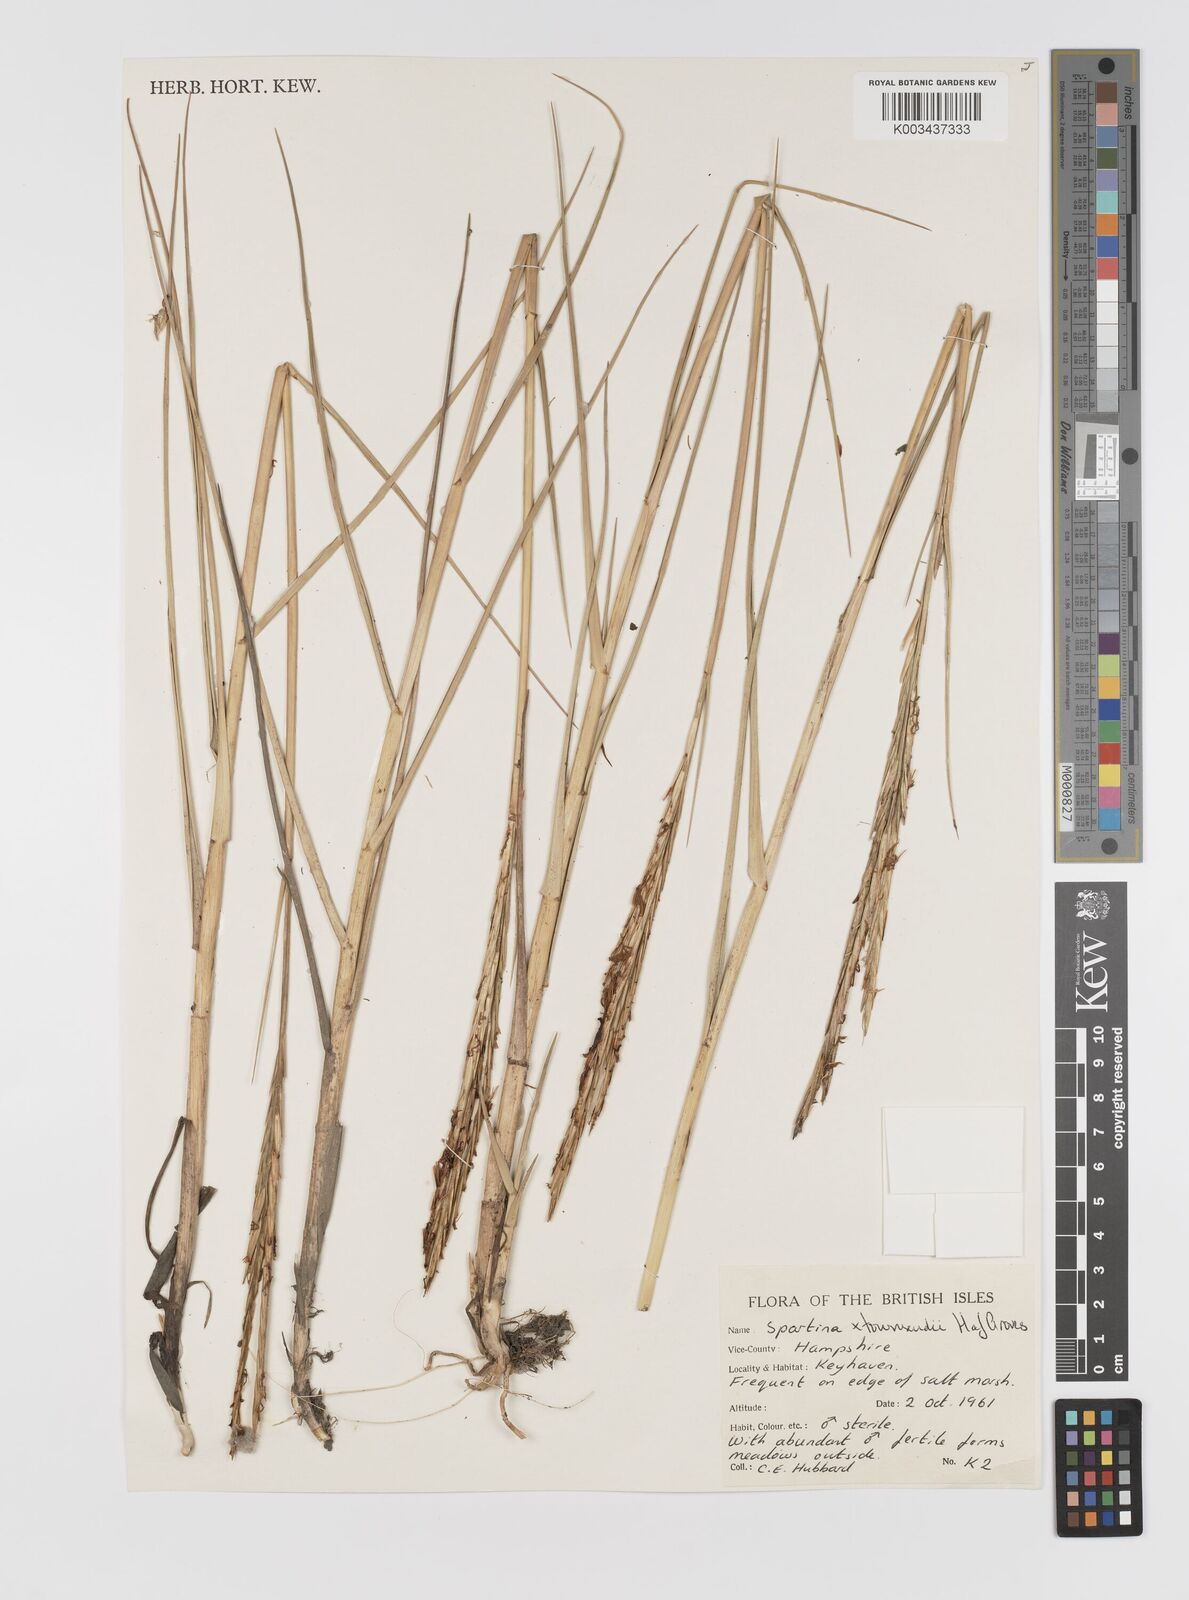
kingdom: Plantae
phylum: Tracheophyta
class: Liliopsida
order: Poales
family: Poaceae
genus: Sporobolus
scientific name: Sporobolus townsendii
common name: Townsend's cordgrass
